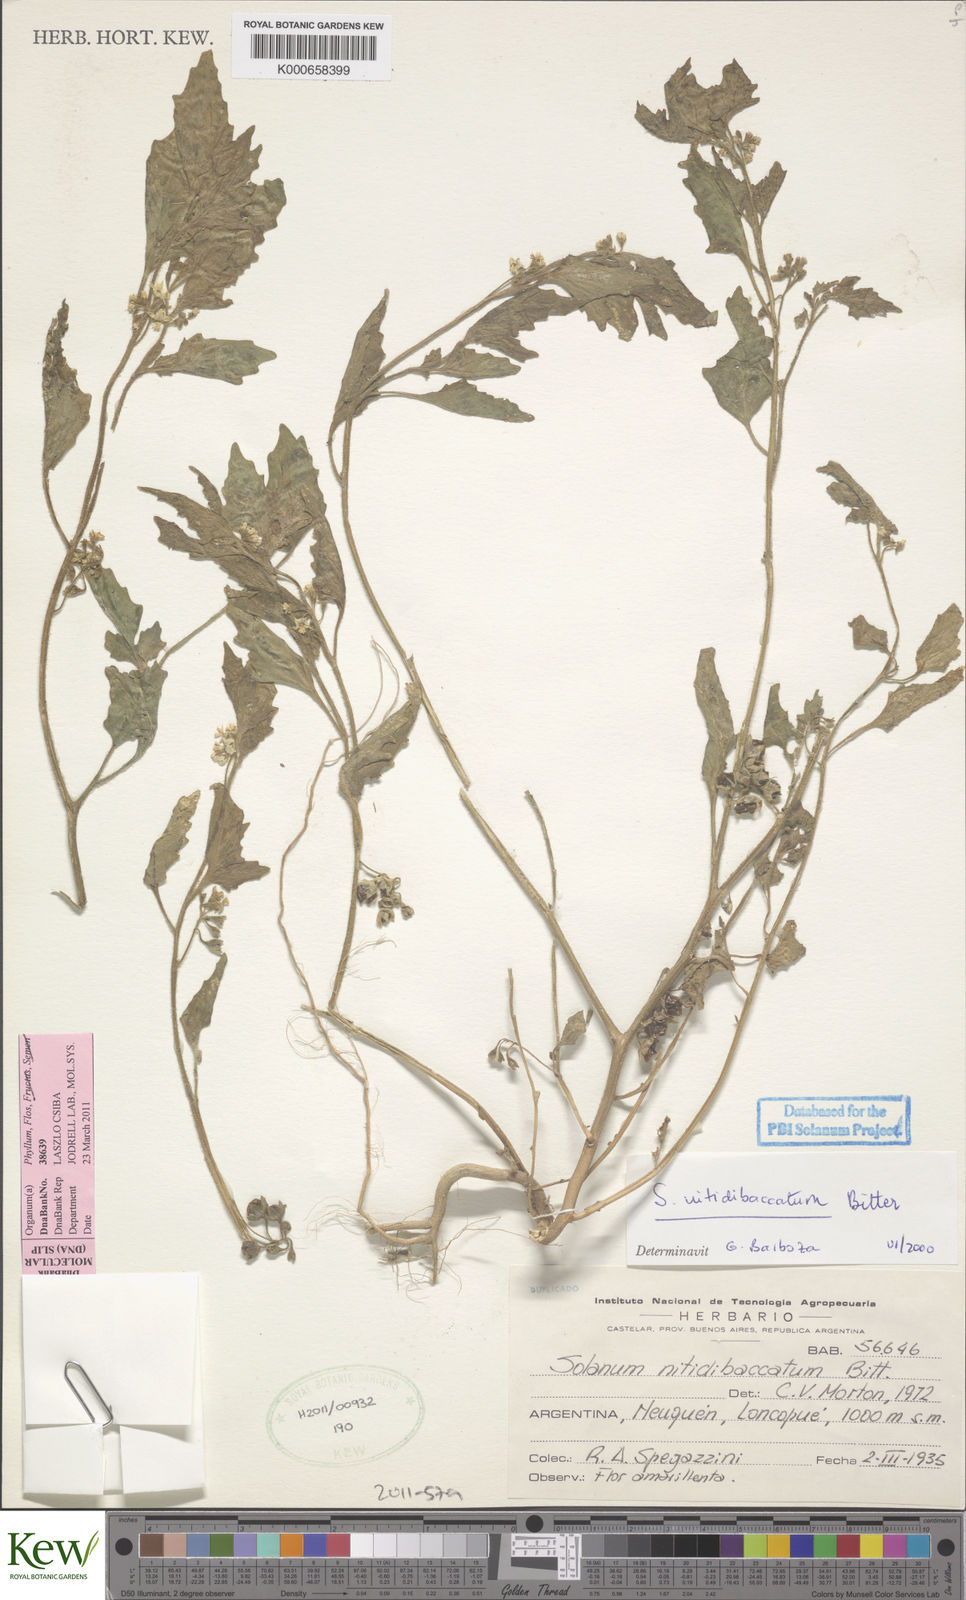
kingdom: Plantae
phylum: Tracheophyta
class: Magnoliopsida
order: Solanales
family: Solanaceae
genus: Solanum
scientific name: Solanum nitidibaccatum
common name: Hairy nightshade
